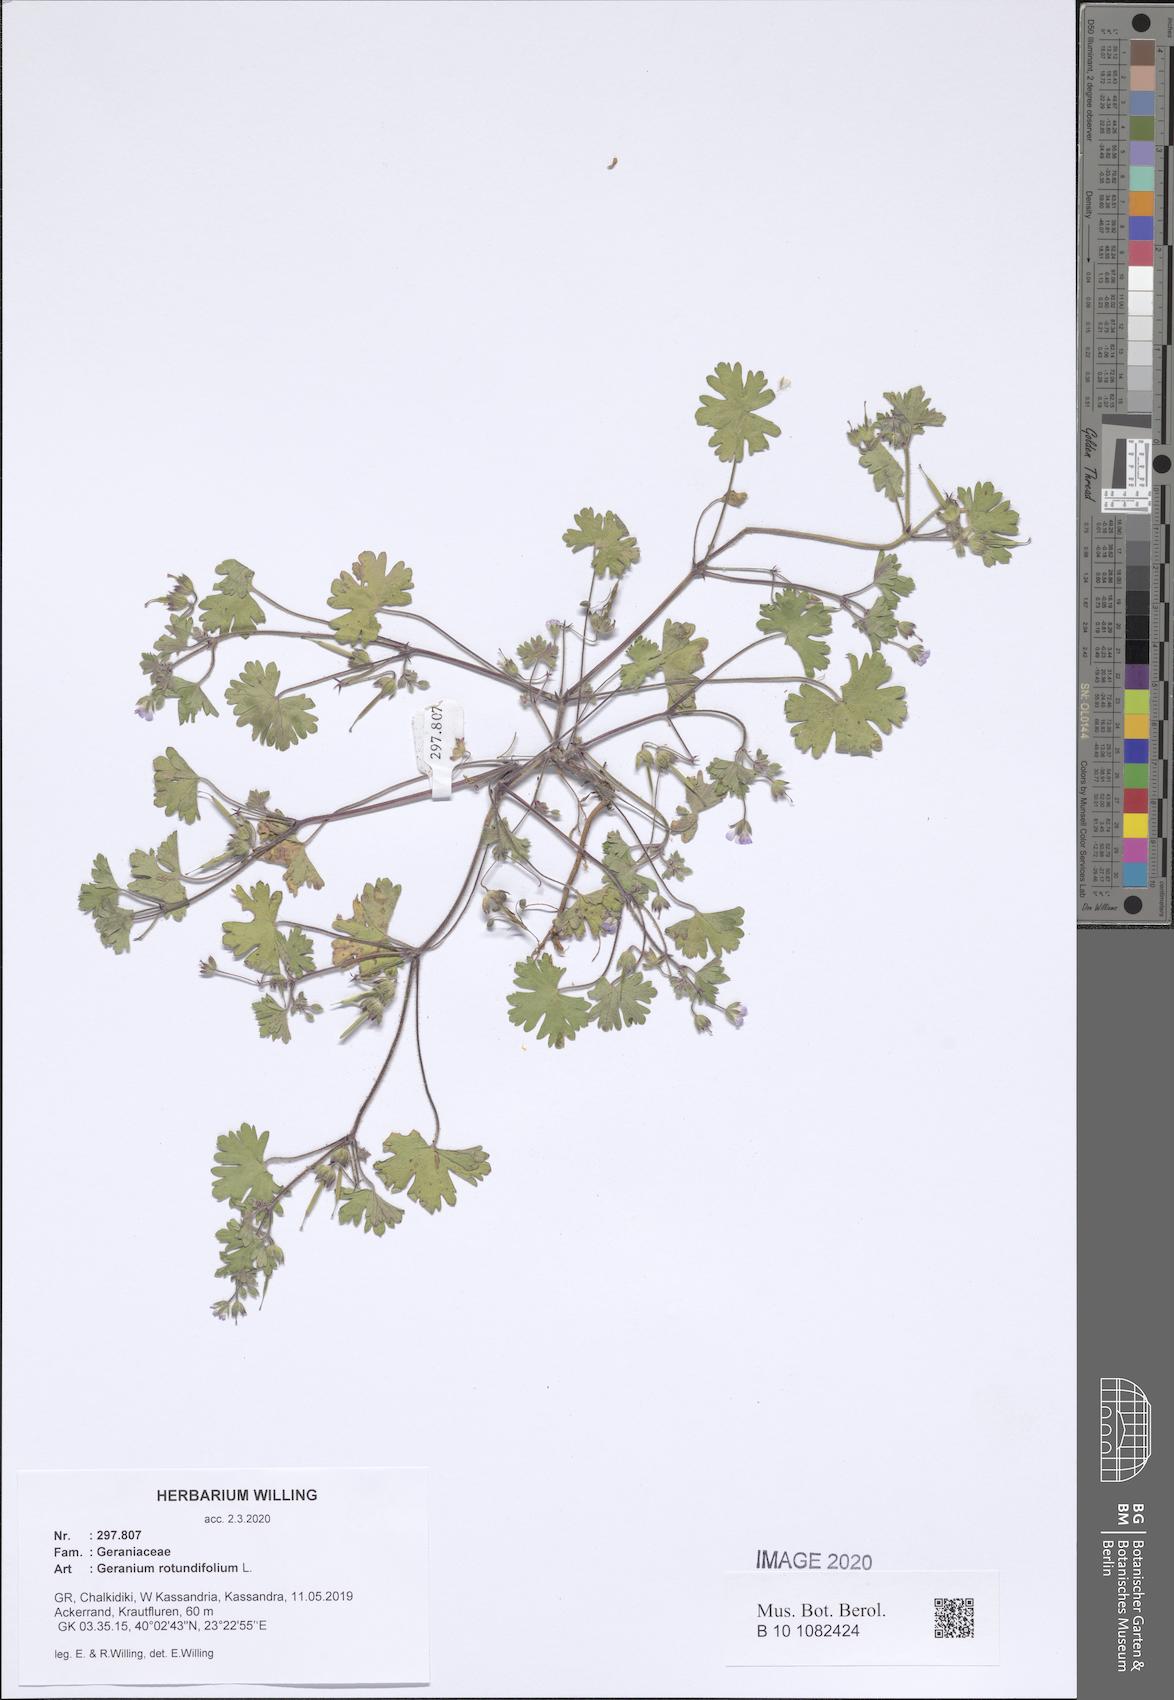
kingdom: Plantae
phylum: Tracheophyta
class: Magnoliopsida
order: Geraniales
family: Geraniaceae
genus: Geranium
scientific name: Geranium rotundifolium
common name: Round-leaved crane's-bill
